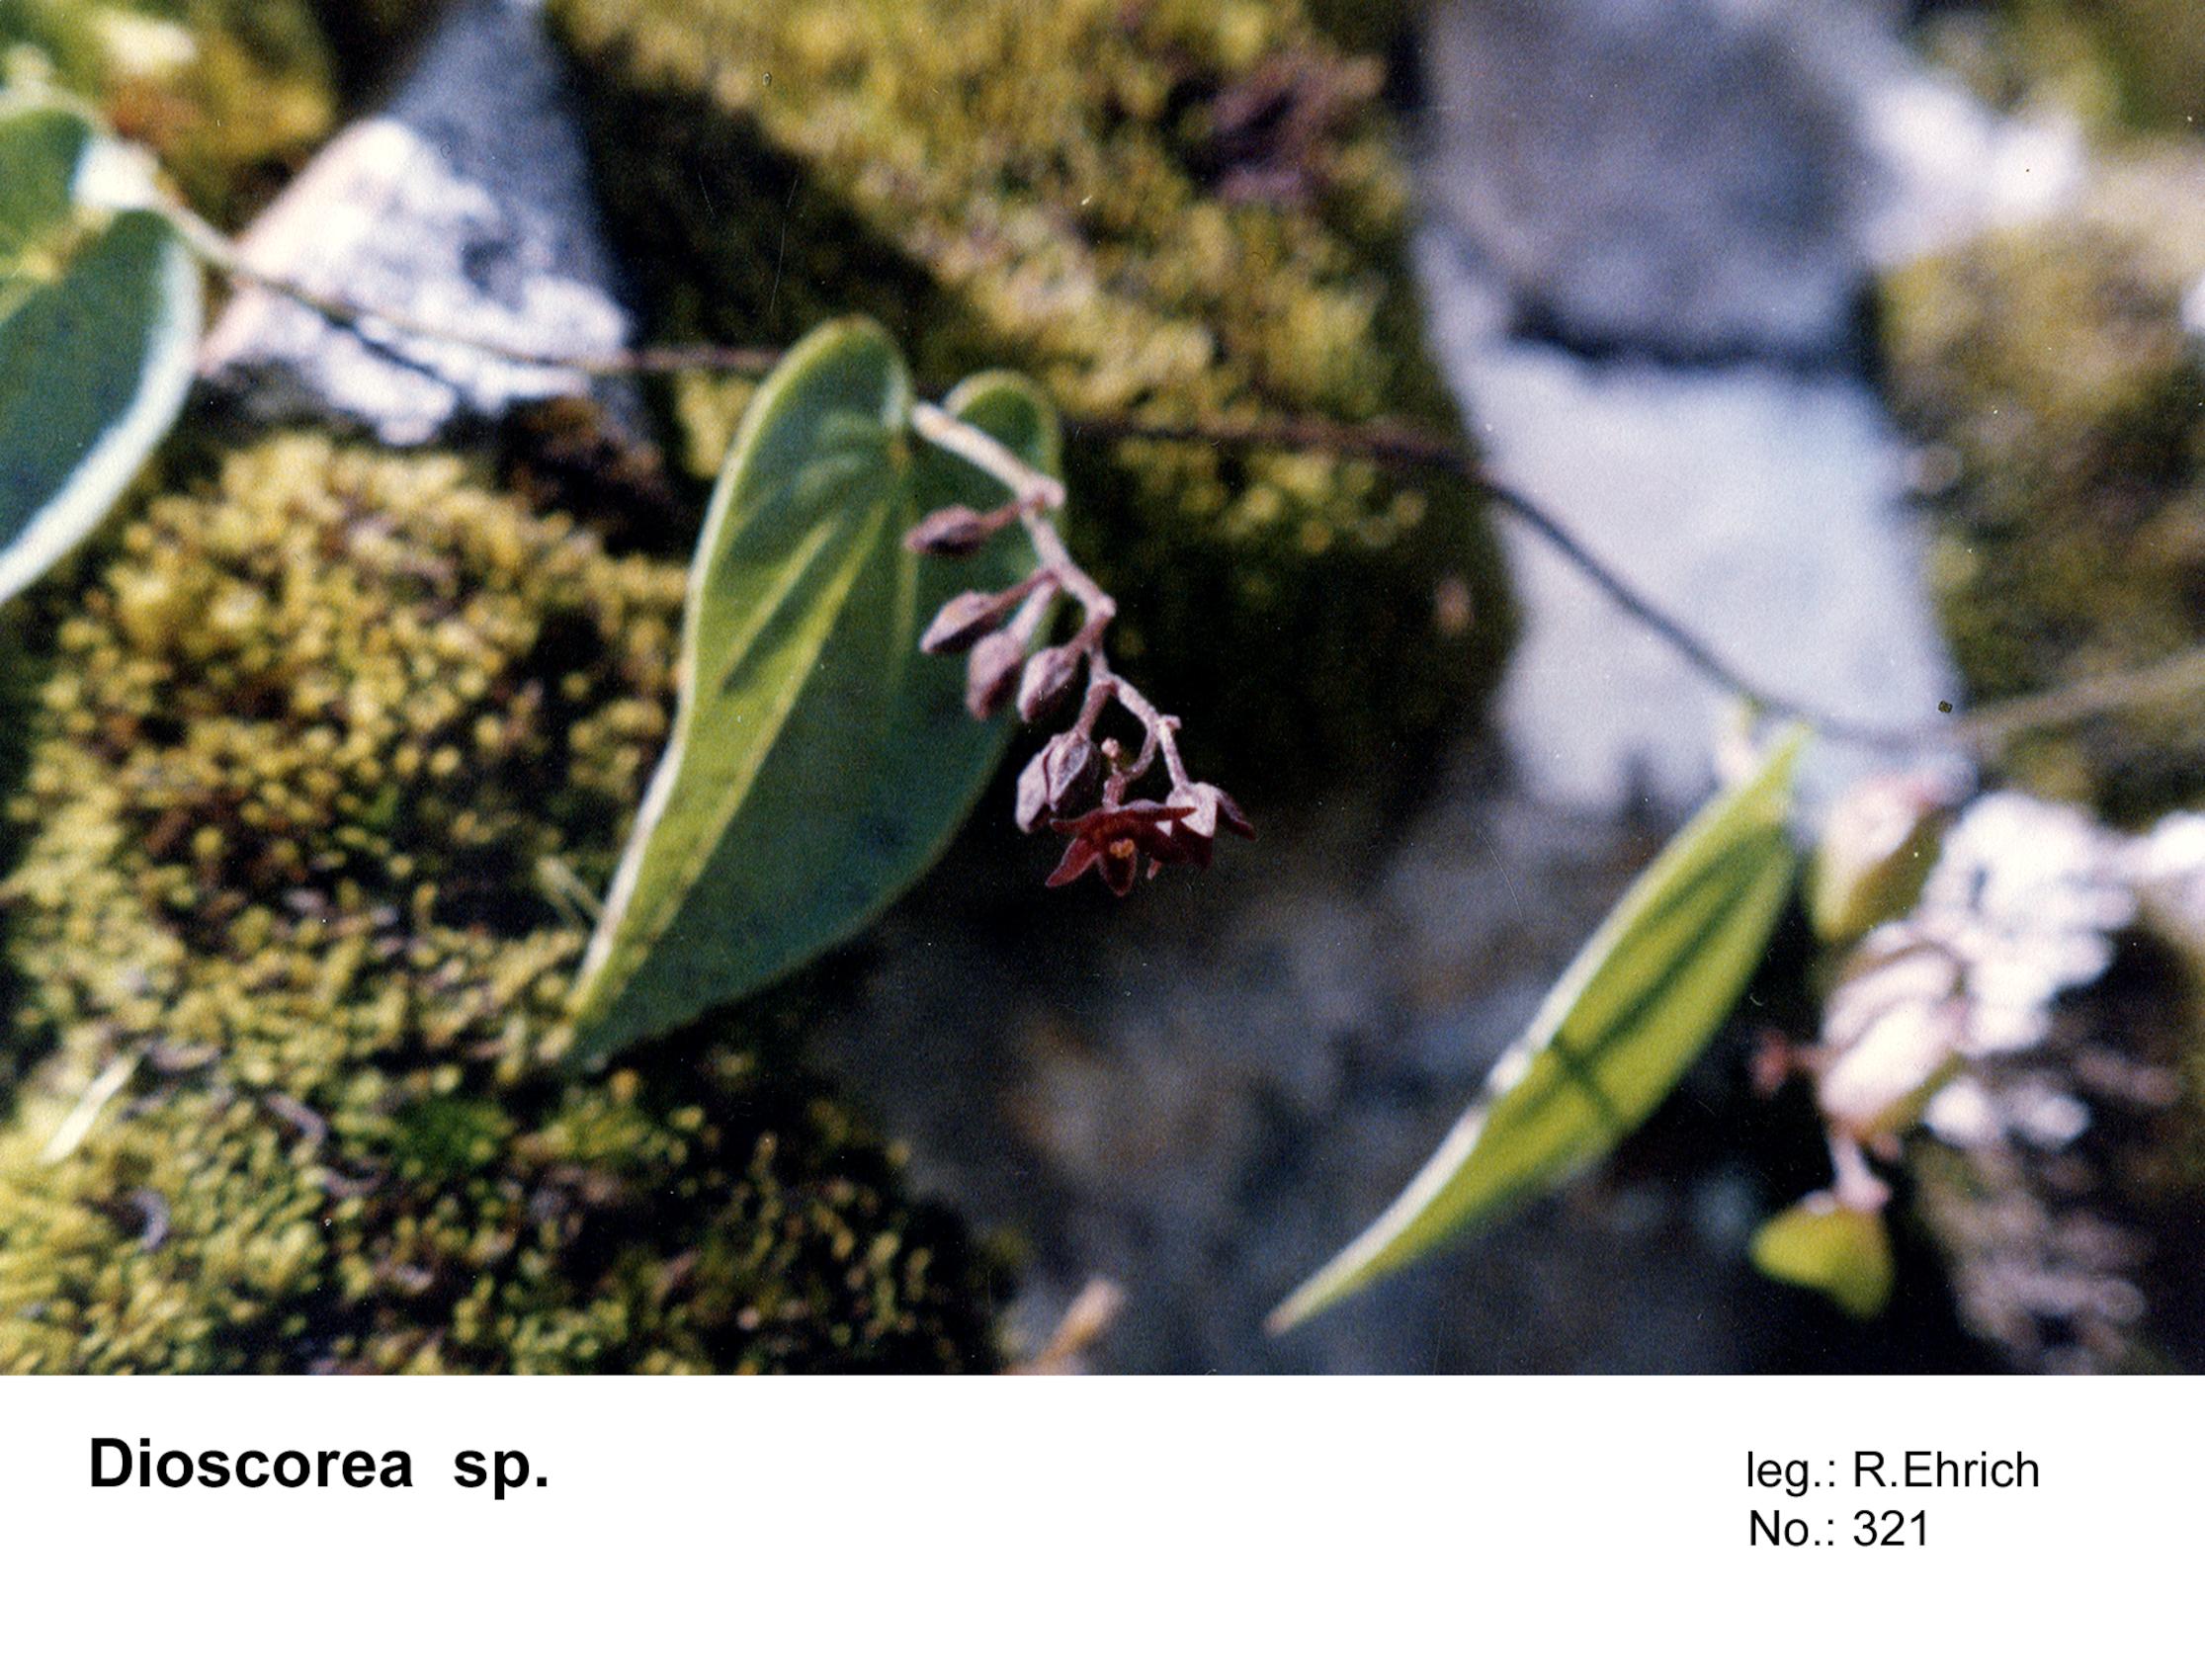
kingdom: Plantae
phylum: Tracheophyta
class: Liliopsida
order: Dioscoreales
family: Dioscoreaceae
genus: Dioscorea
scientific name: Dioscorea
